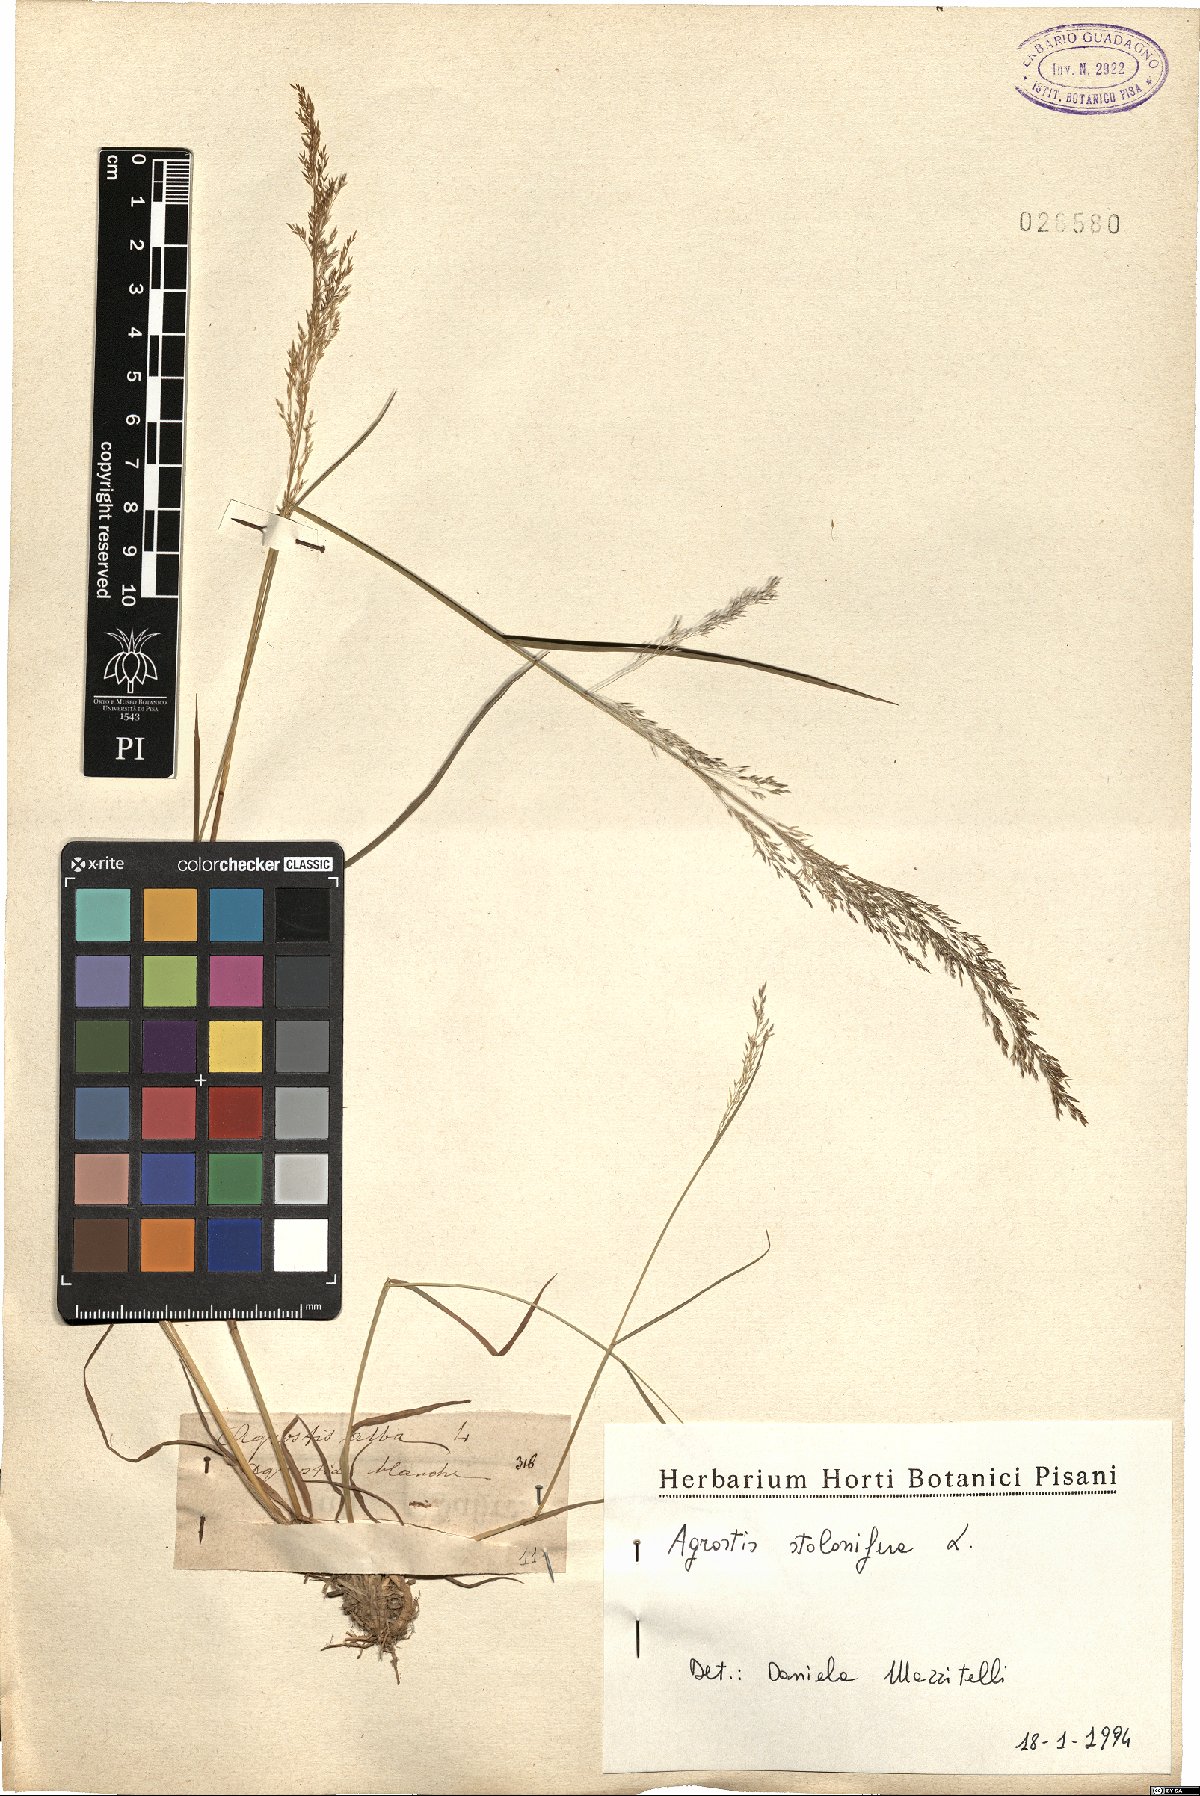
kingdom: Plantae
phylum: Tracheophyta
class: Liliopsida
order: Poales
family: Poaceae
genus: Agrostis
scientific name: Agrostis stolonifera
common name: Creeping bentgrass
